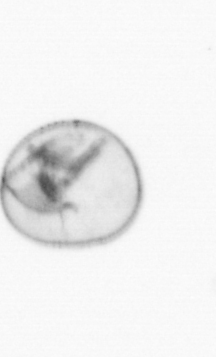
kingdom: Chromista
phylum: Myzozoa
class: Dinophyceae
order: Noctilucales
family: Noctilucaceae
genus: Noctiluca
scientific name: Noctiluca scintillans
